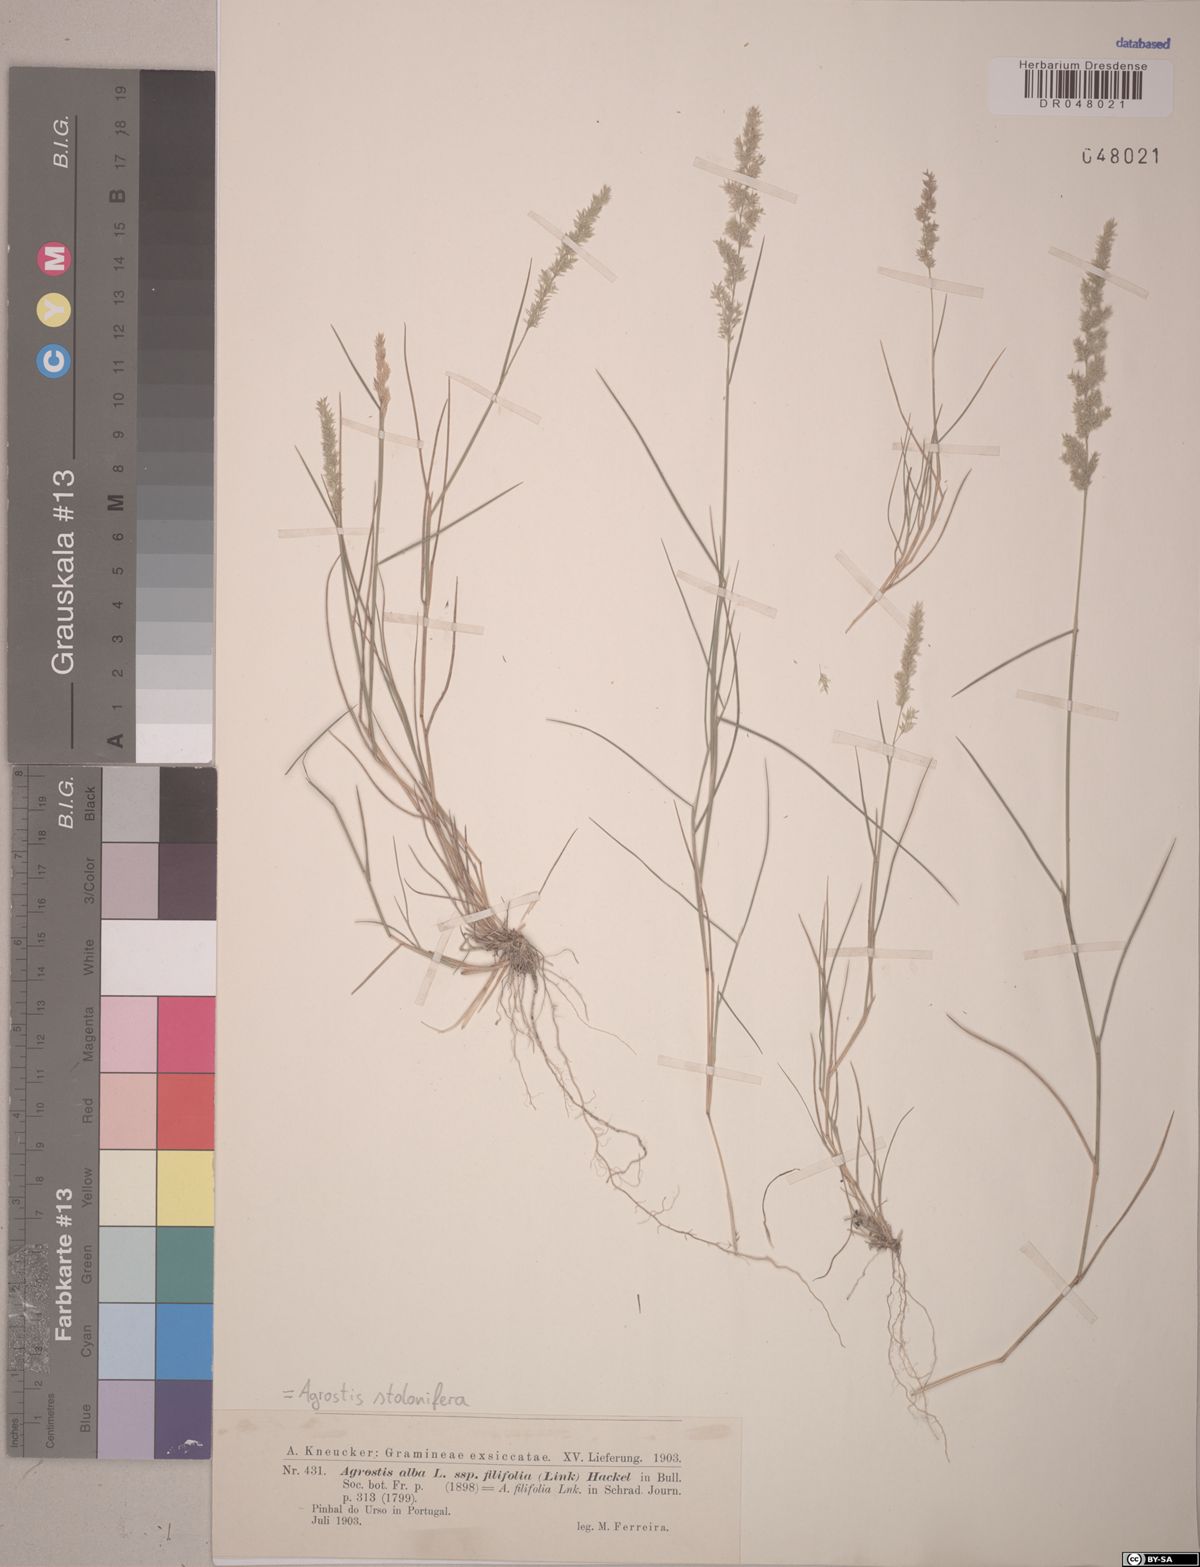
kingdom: Plantae
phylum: Tracheophyta
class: Liliopsida
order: Poales
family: Poaceae
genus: Agrostis
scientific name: Agrostis stolonifera
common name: Creeping bentgrass
